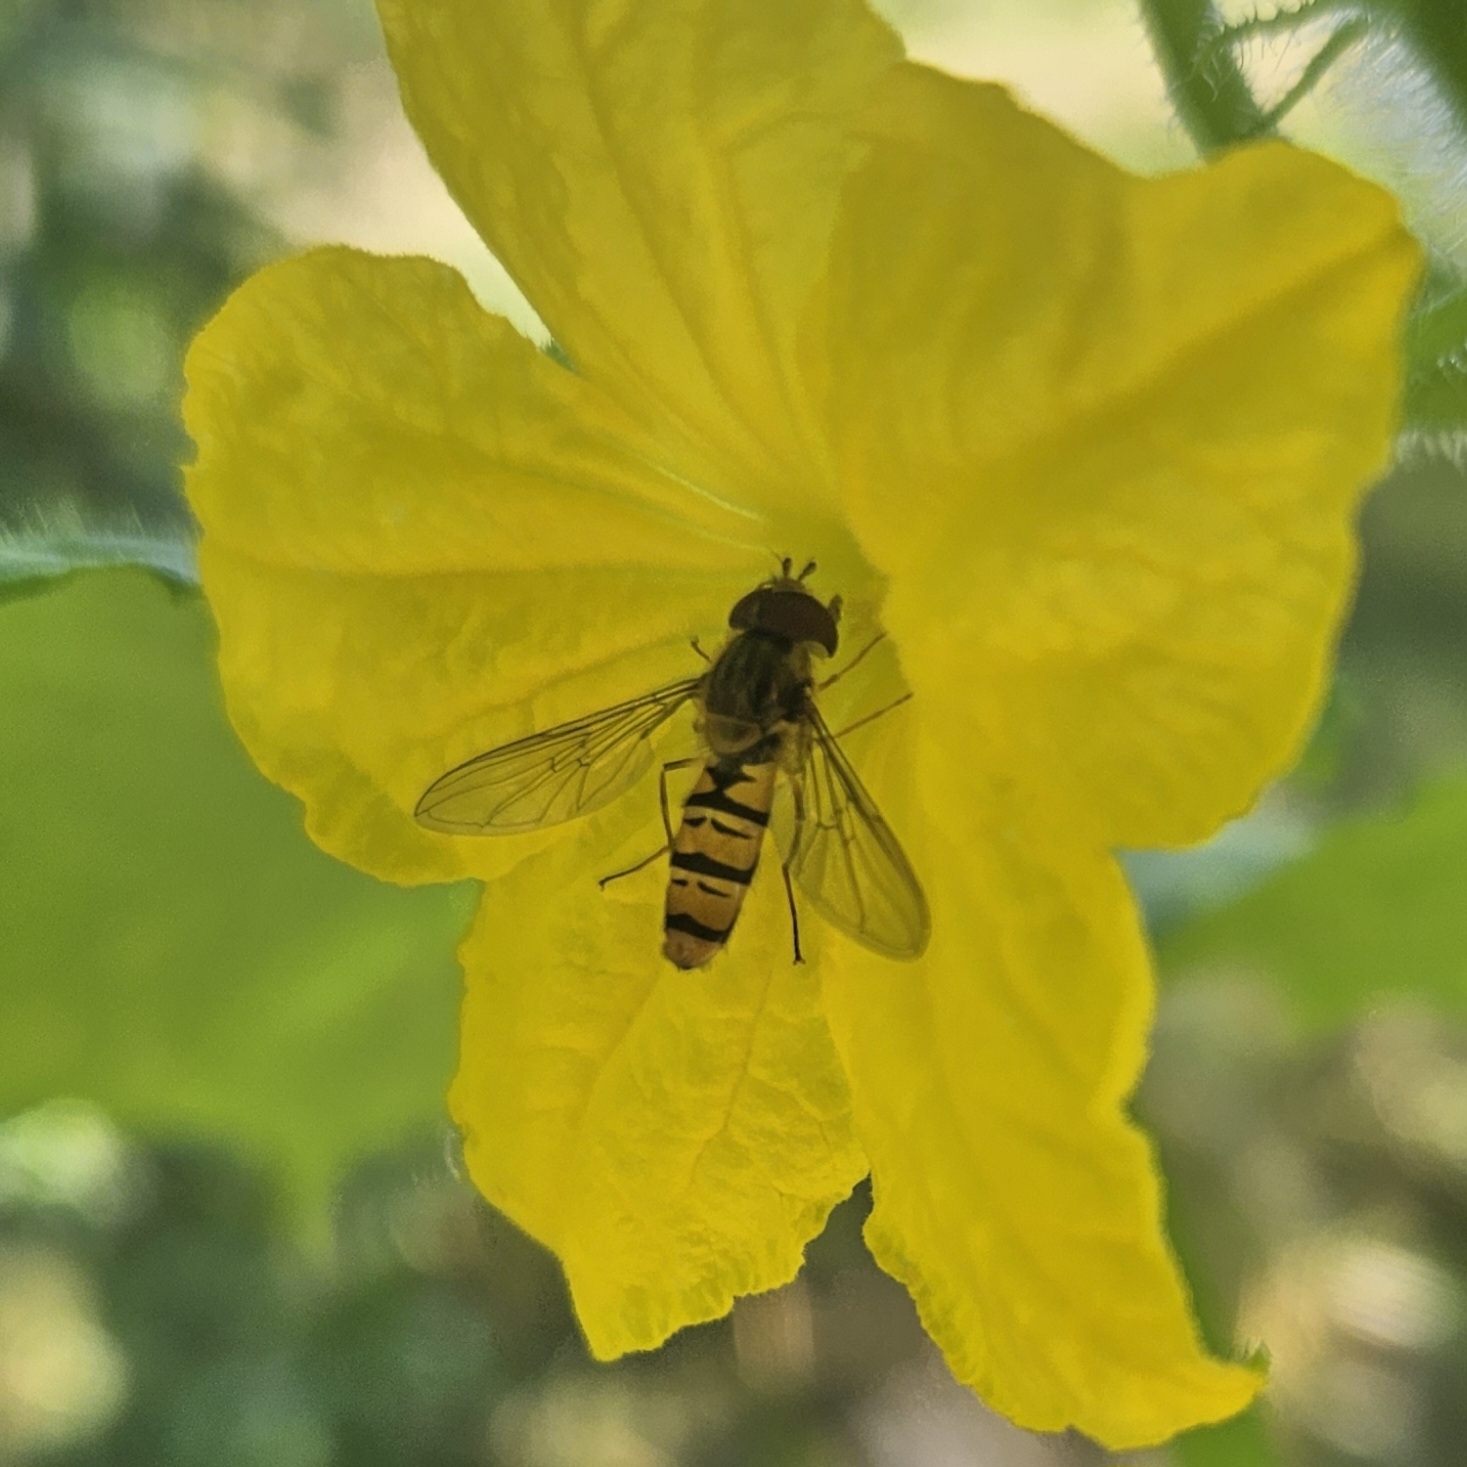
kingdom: Animalia
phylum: Arthropoda
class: Insecta
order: Diptera
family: Syrphidae
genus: Episyrphus
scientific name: Episyrphus balteatus
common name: Dobbeltbåndet svirreflue
